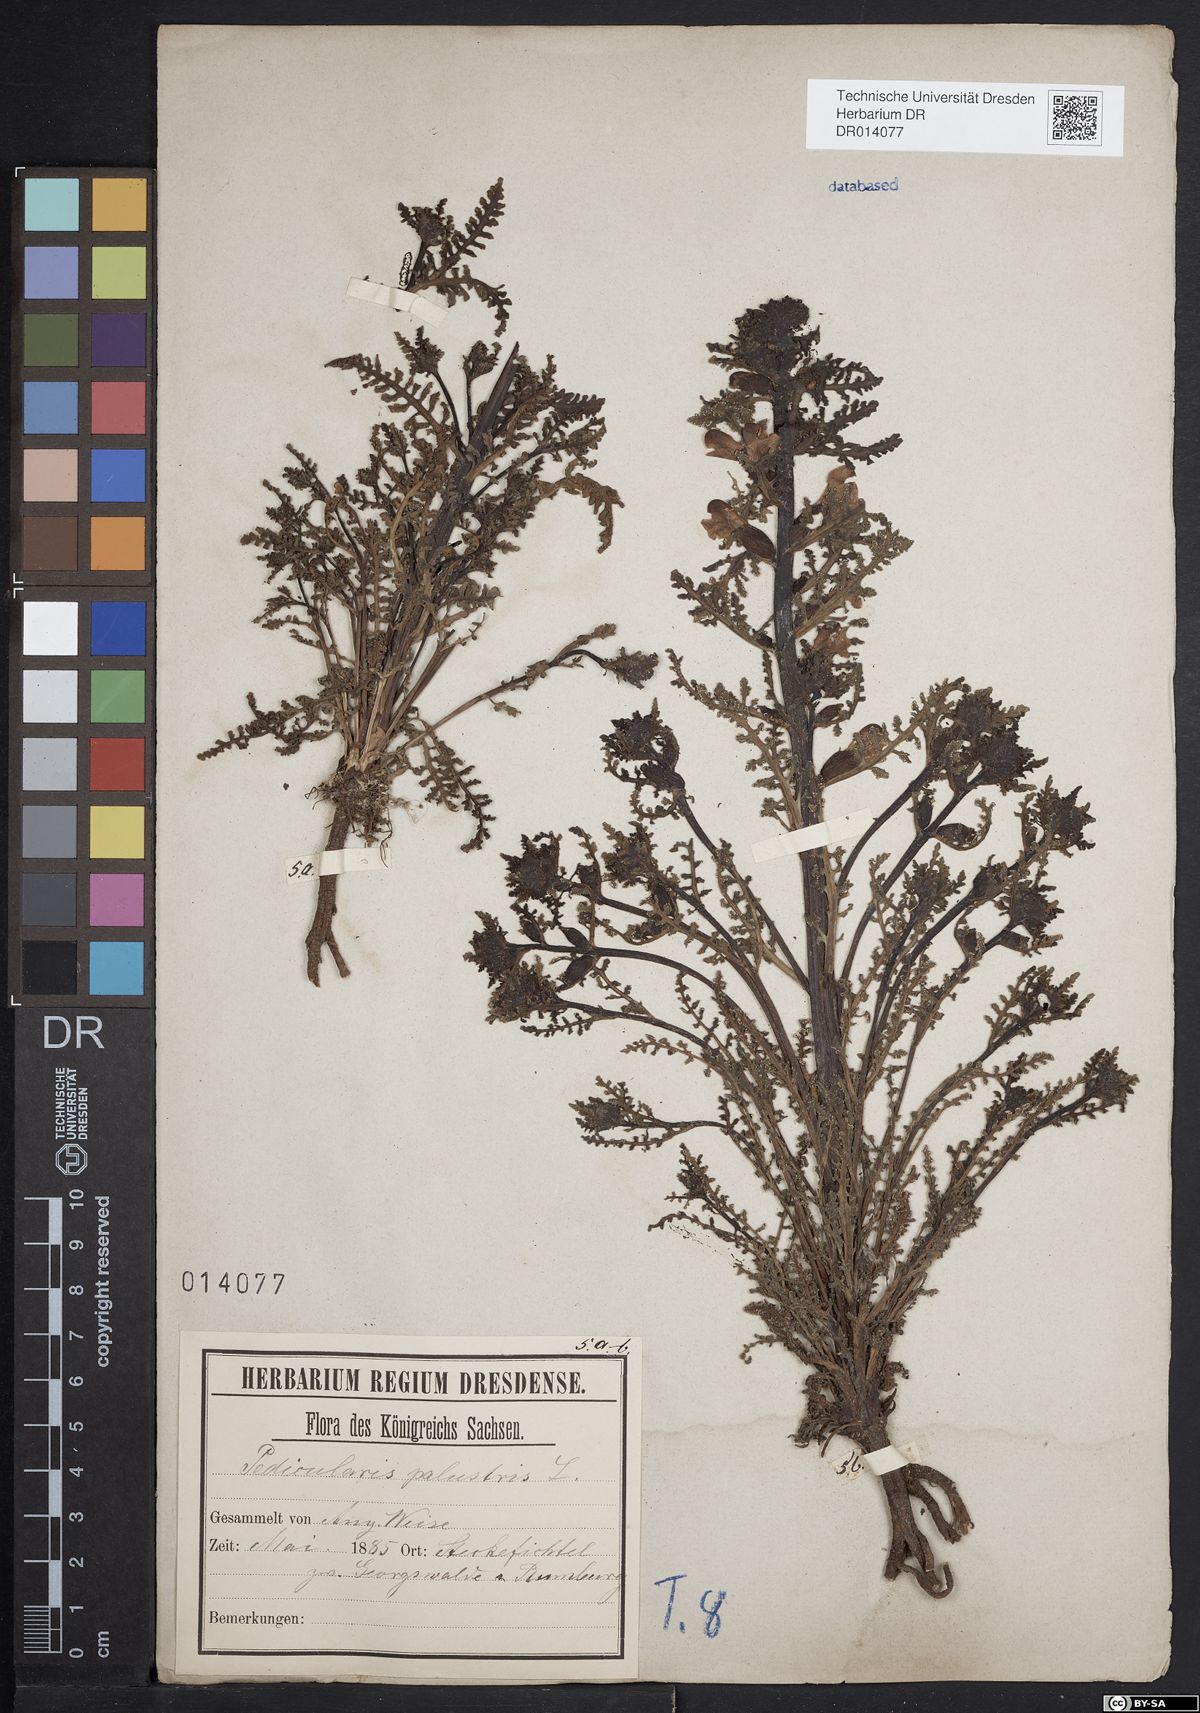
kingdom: Plantae
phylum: Tracheophyta
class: Magnoliopsida
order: Lamiales
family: Orobanchaceae
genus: Pedicularis
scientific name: Pedicularis palustris
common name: Marsh lousewort
